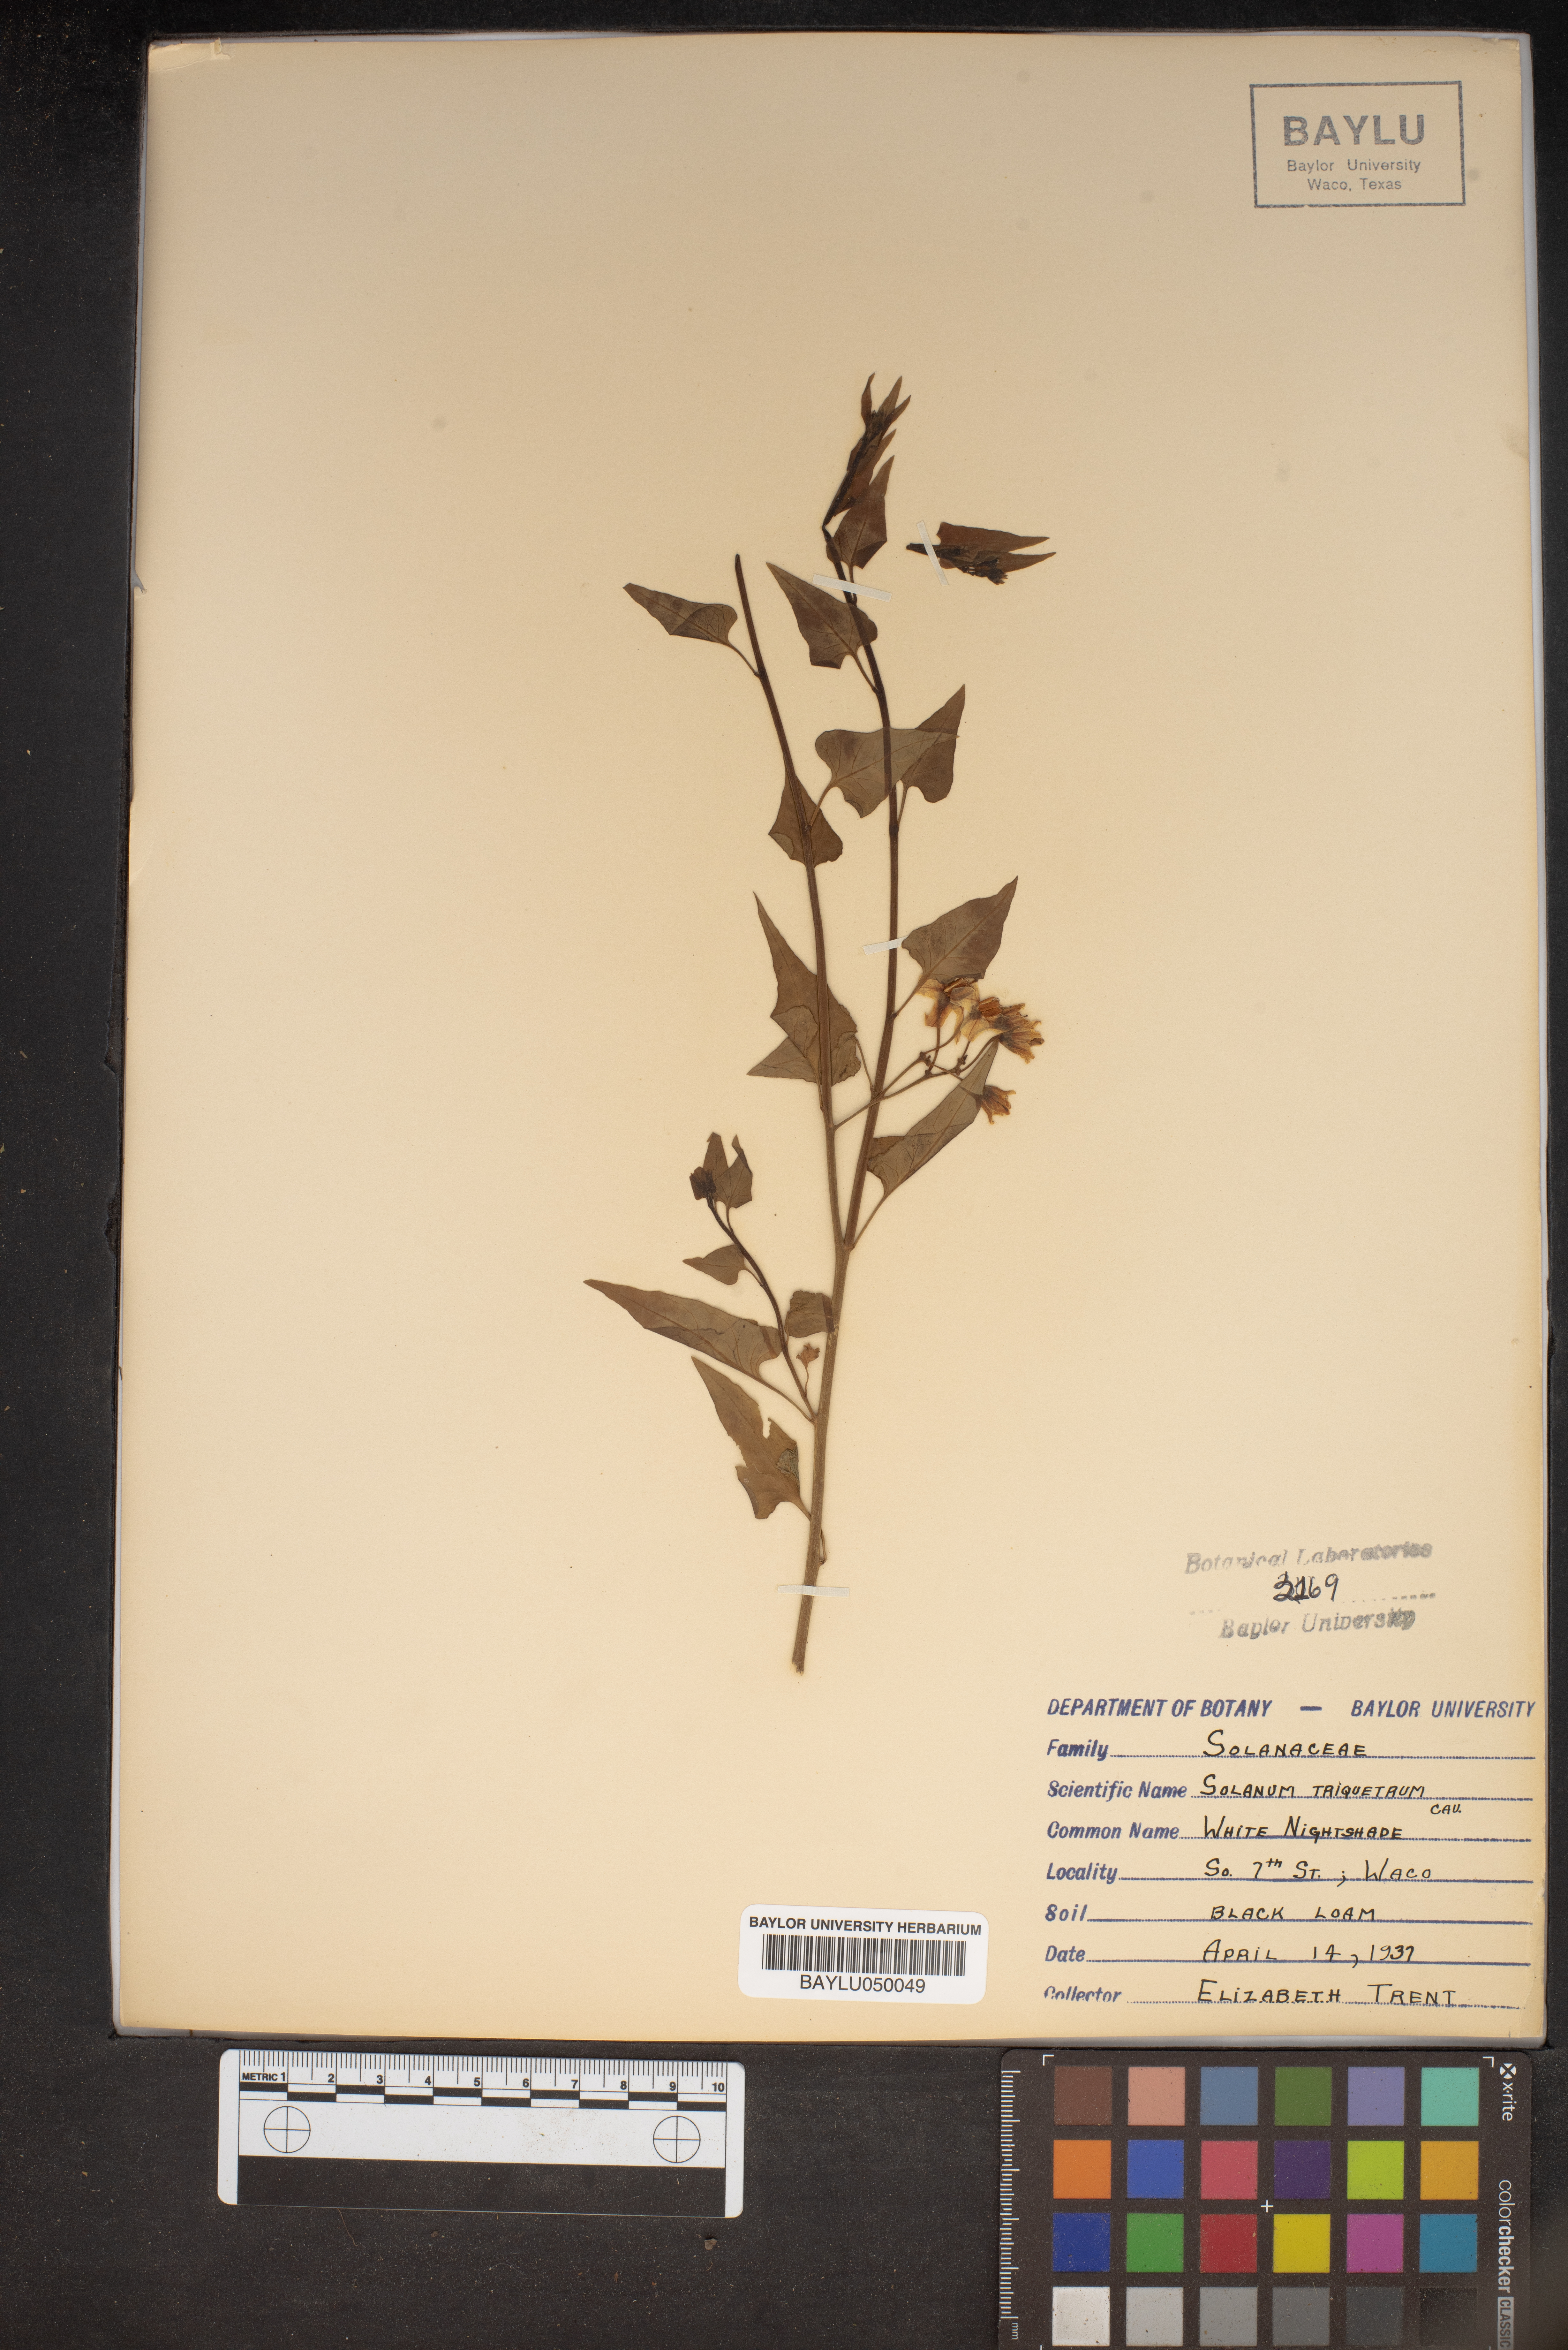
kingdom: Plantae
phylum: Tracheophyta
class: Magnoliopsida
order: Solanales
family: Solanaceae
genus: Solanum
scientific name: Solanum triquetrum
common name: Texas nightshade
